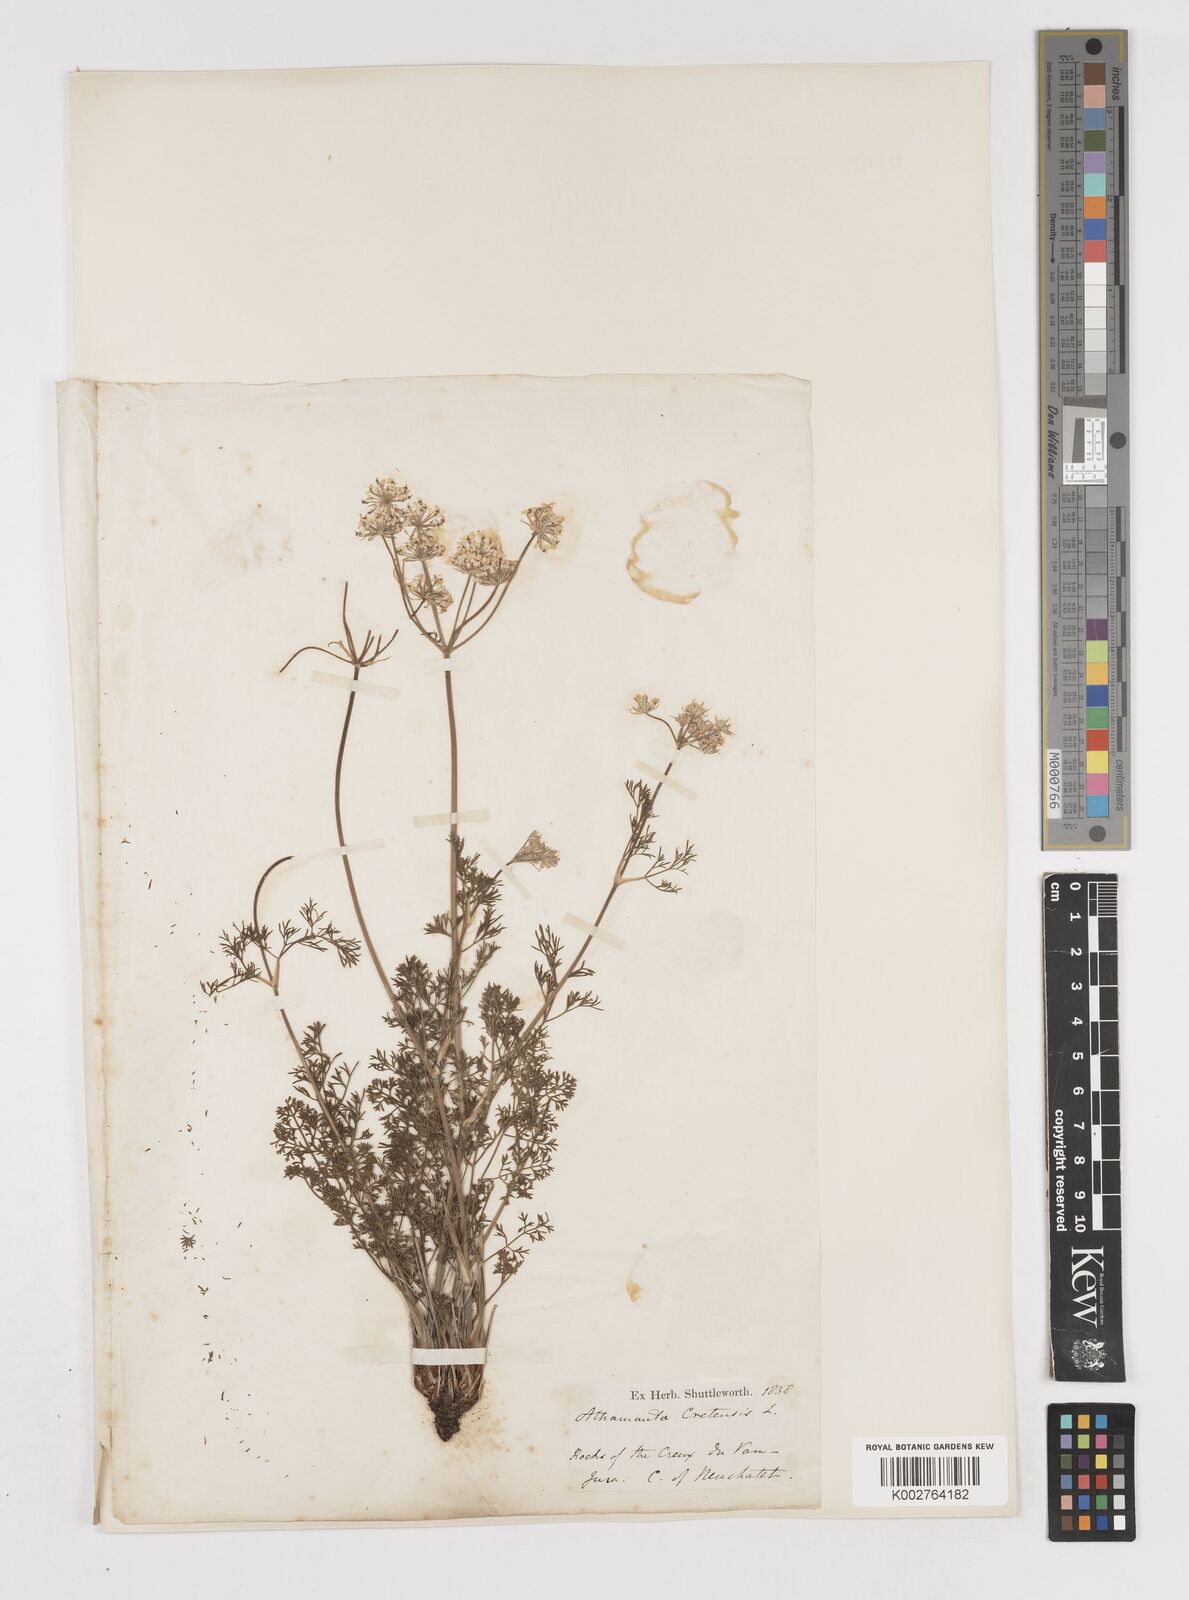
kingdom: Plantae
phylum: Tracheophyta
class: Magnoliopsida
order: Apiales
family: Apiaceae
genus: Athamanta
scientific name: Athamanta cretensis
